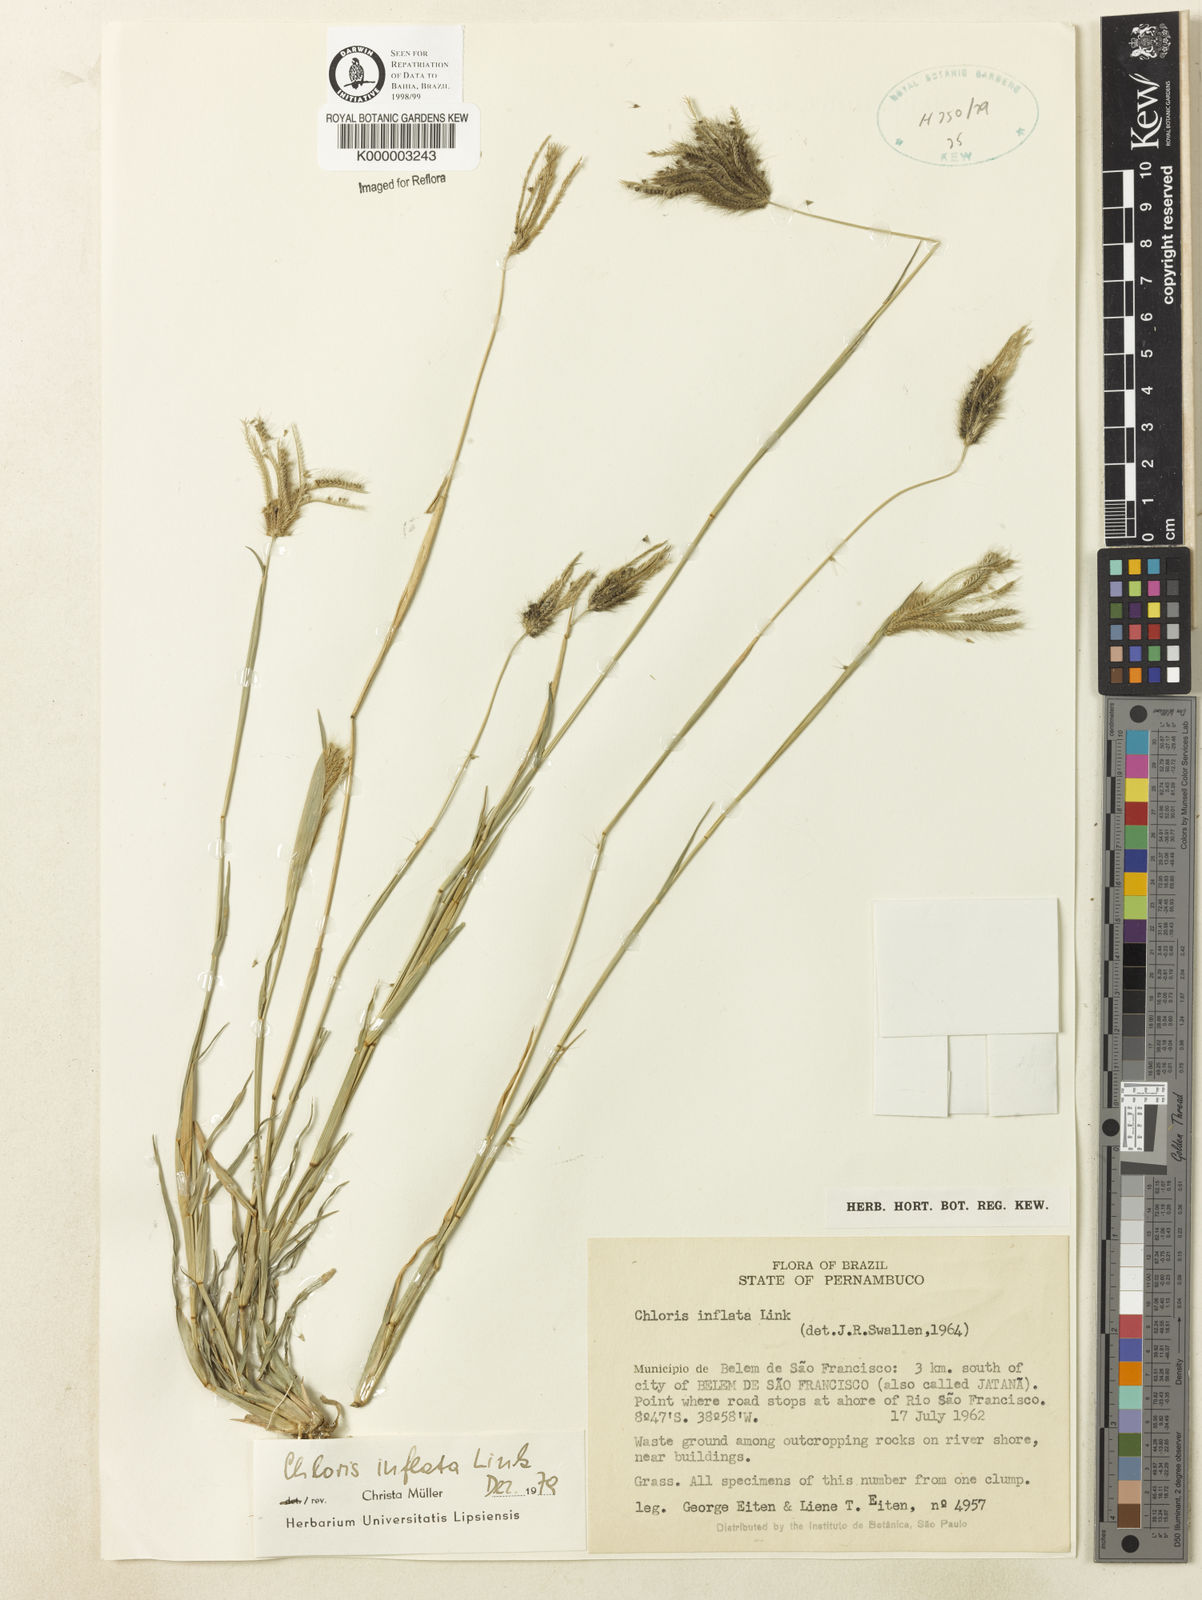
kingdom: Plantae
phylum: Tracheophyta
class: Liliopsida
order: Poales
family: Poaceae
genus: Chloris
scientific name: Chloris
